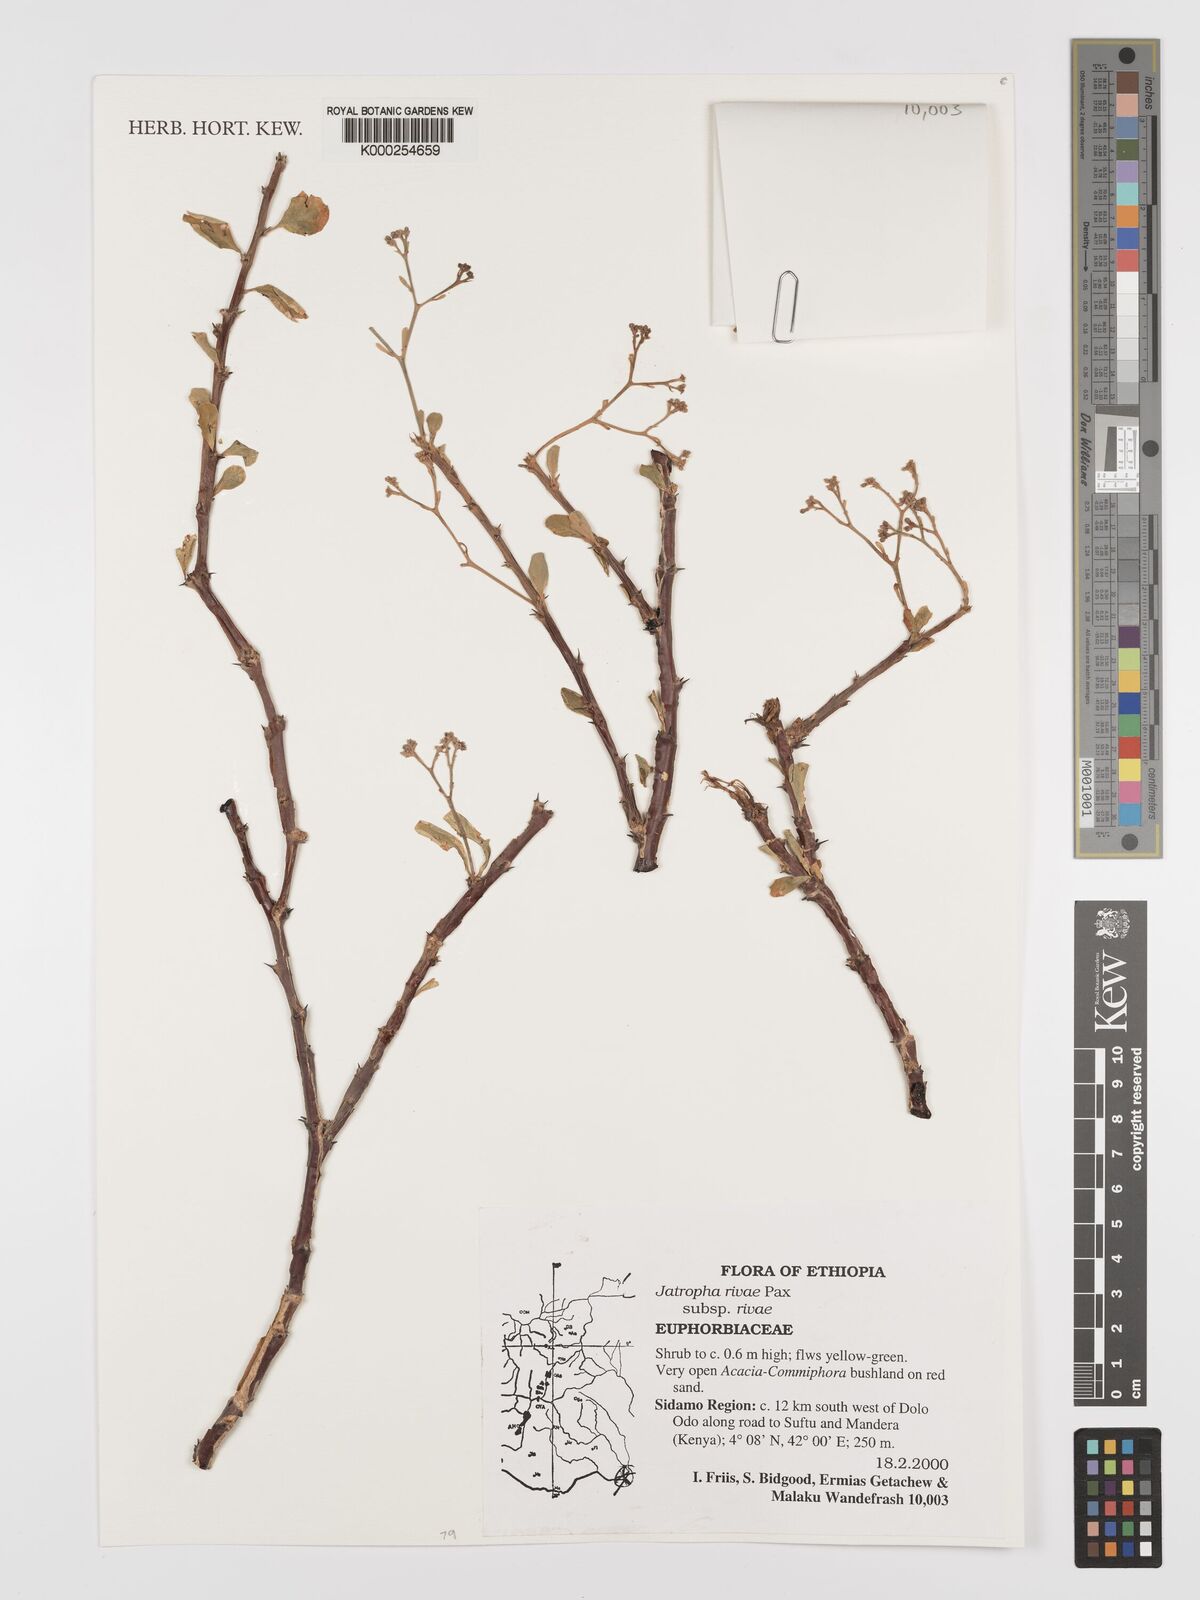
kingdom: Plantae
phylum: Tracheophyta
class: Magnoliopsida
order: Malpighiales
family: Euphorbiaceae
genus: Jatropha
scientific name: Jatropha rivae
